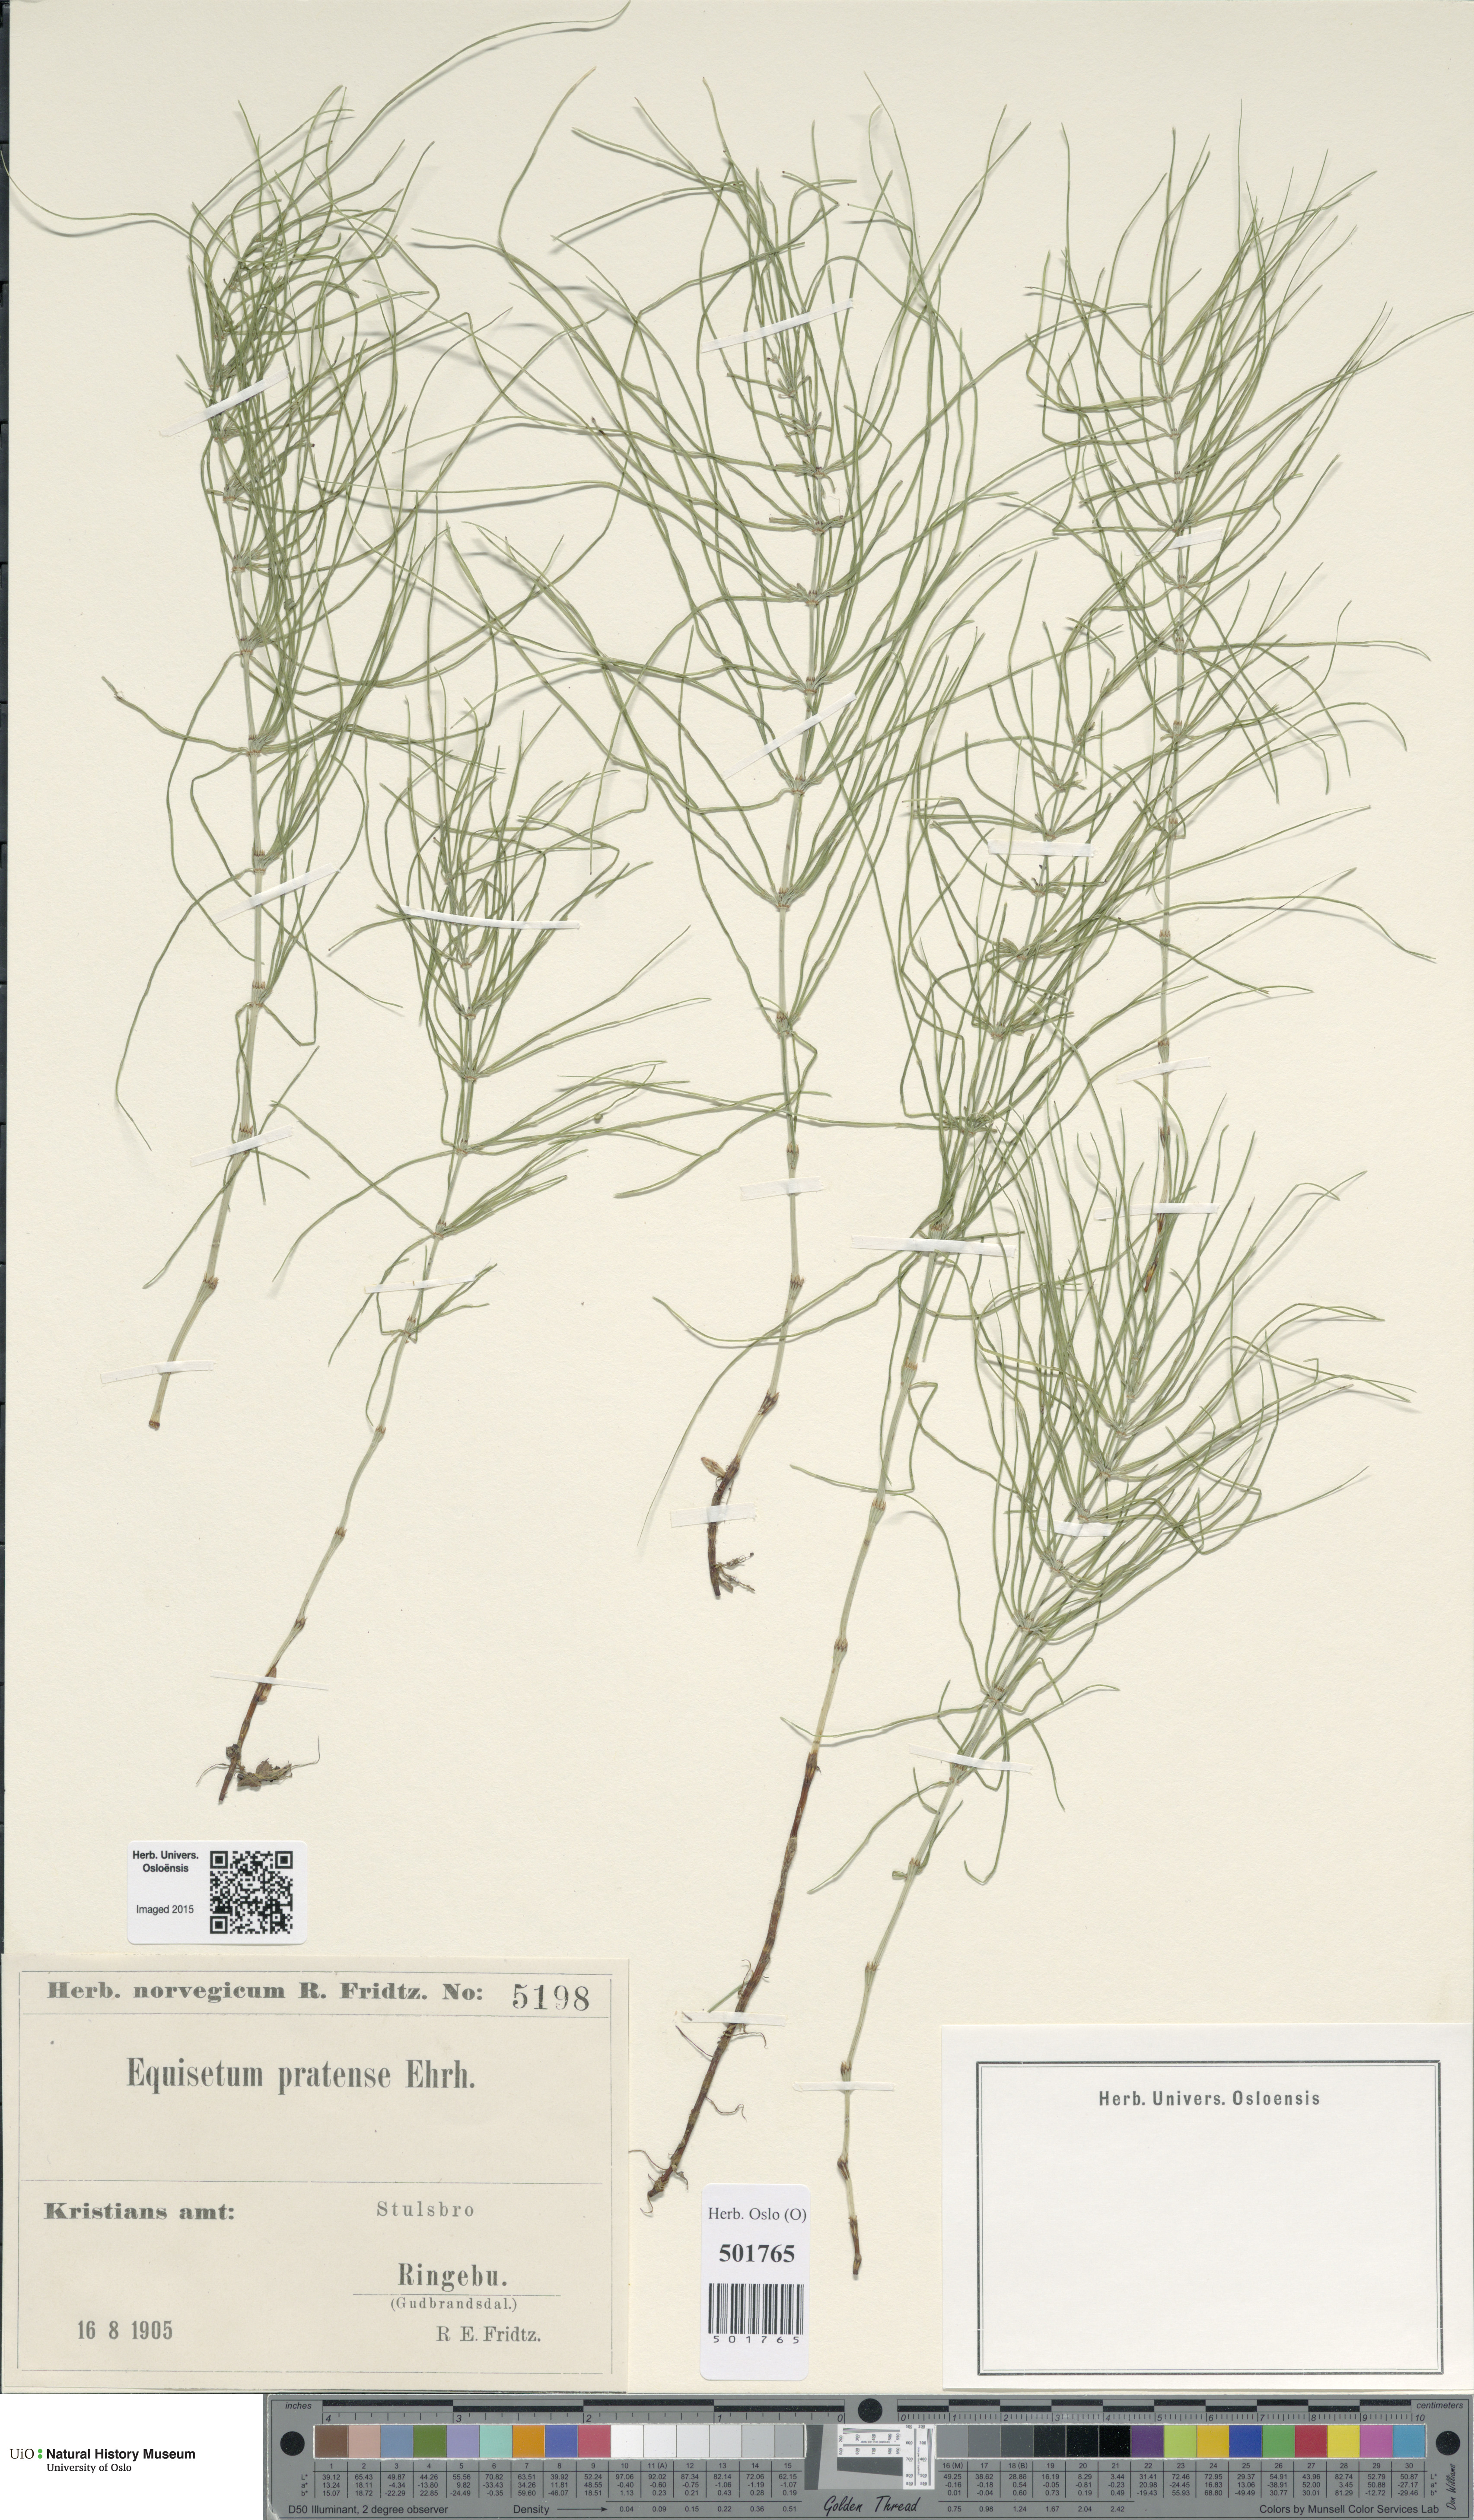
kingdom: Plantae
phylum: Tracheophyta
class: Polypodiopsida
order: Equisetales
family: Equisetaceae
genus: Equisetum
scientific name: Equisetum pratense
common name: Meadow horsetail
